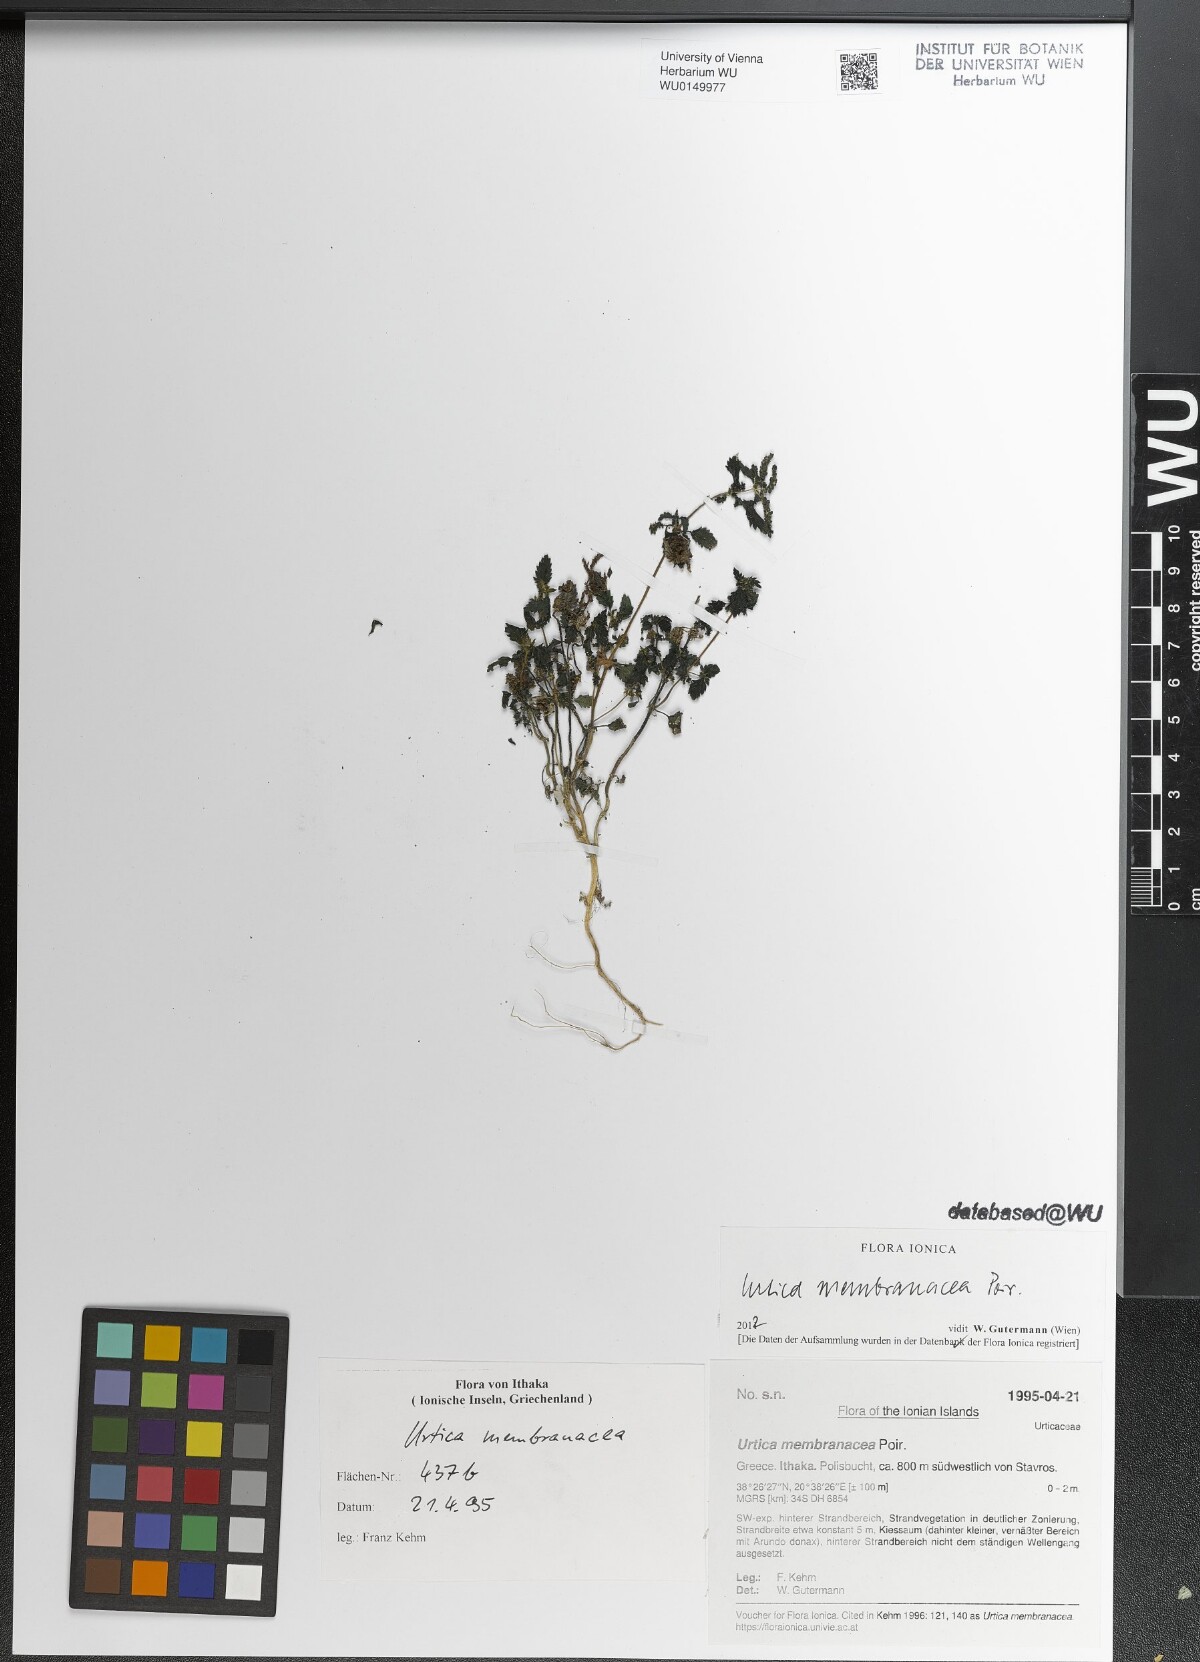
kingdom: Plantae
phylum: Tracheophyta
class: Magnoliopsida
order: Rosales
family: Urticaceae
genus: Urtica
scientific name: Urtica membranacea
